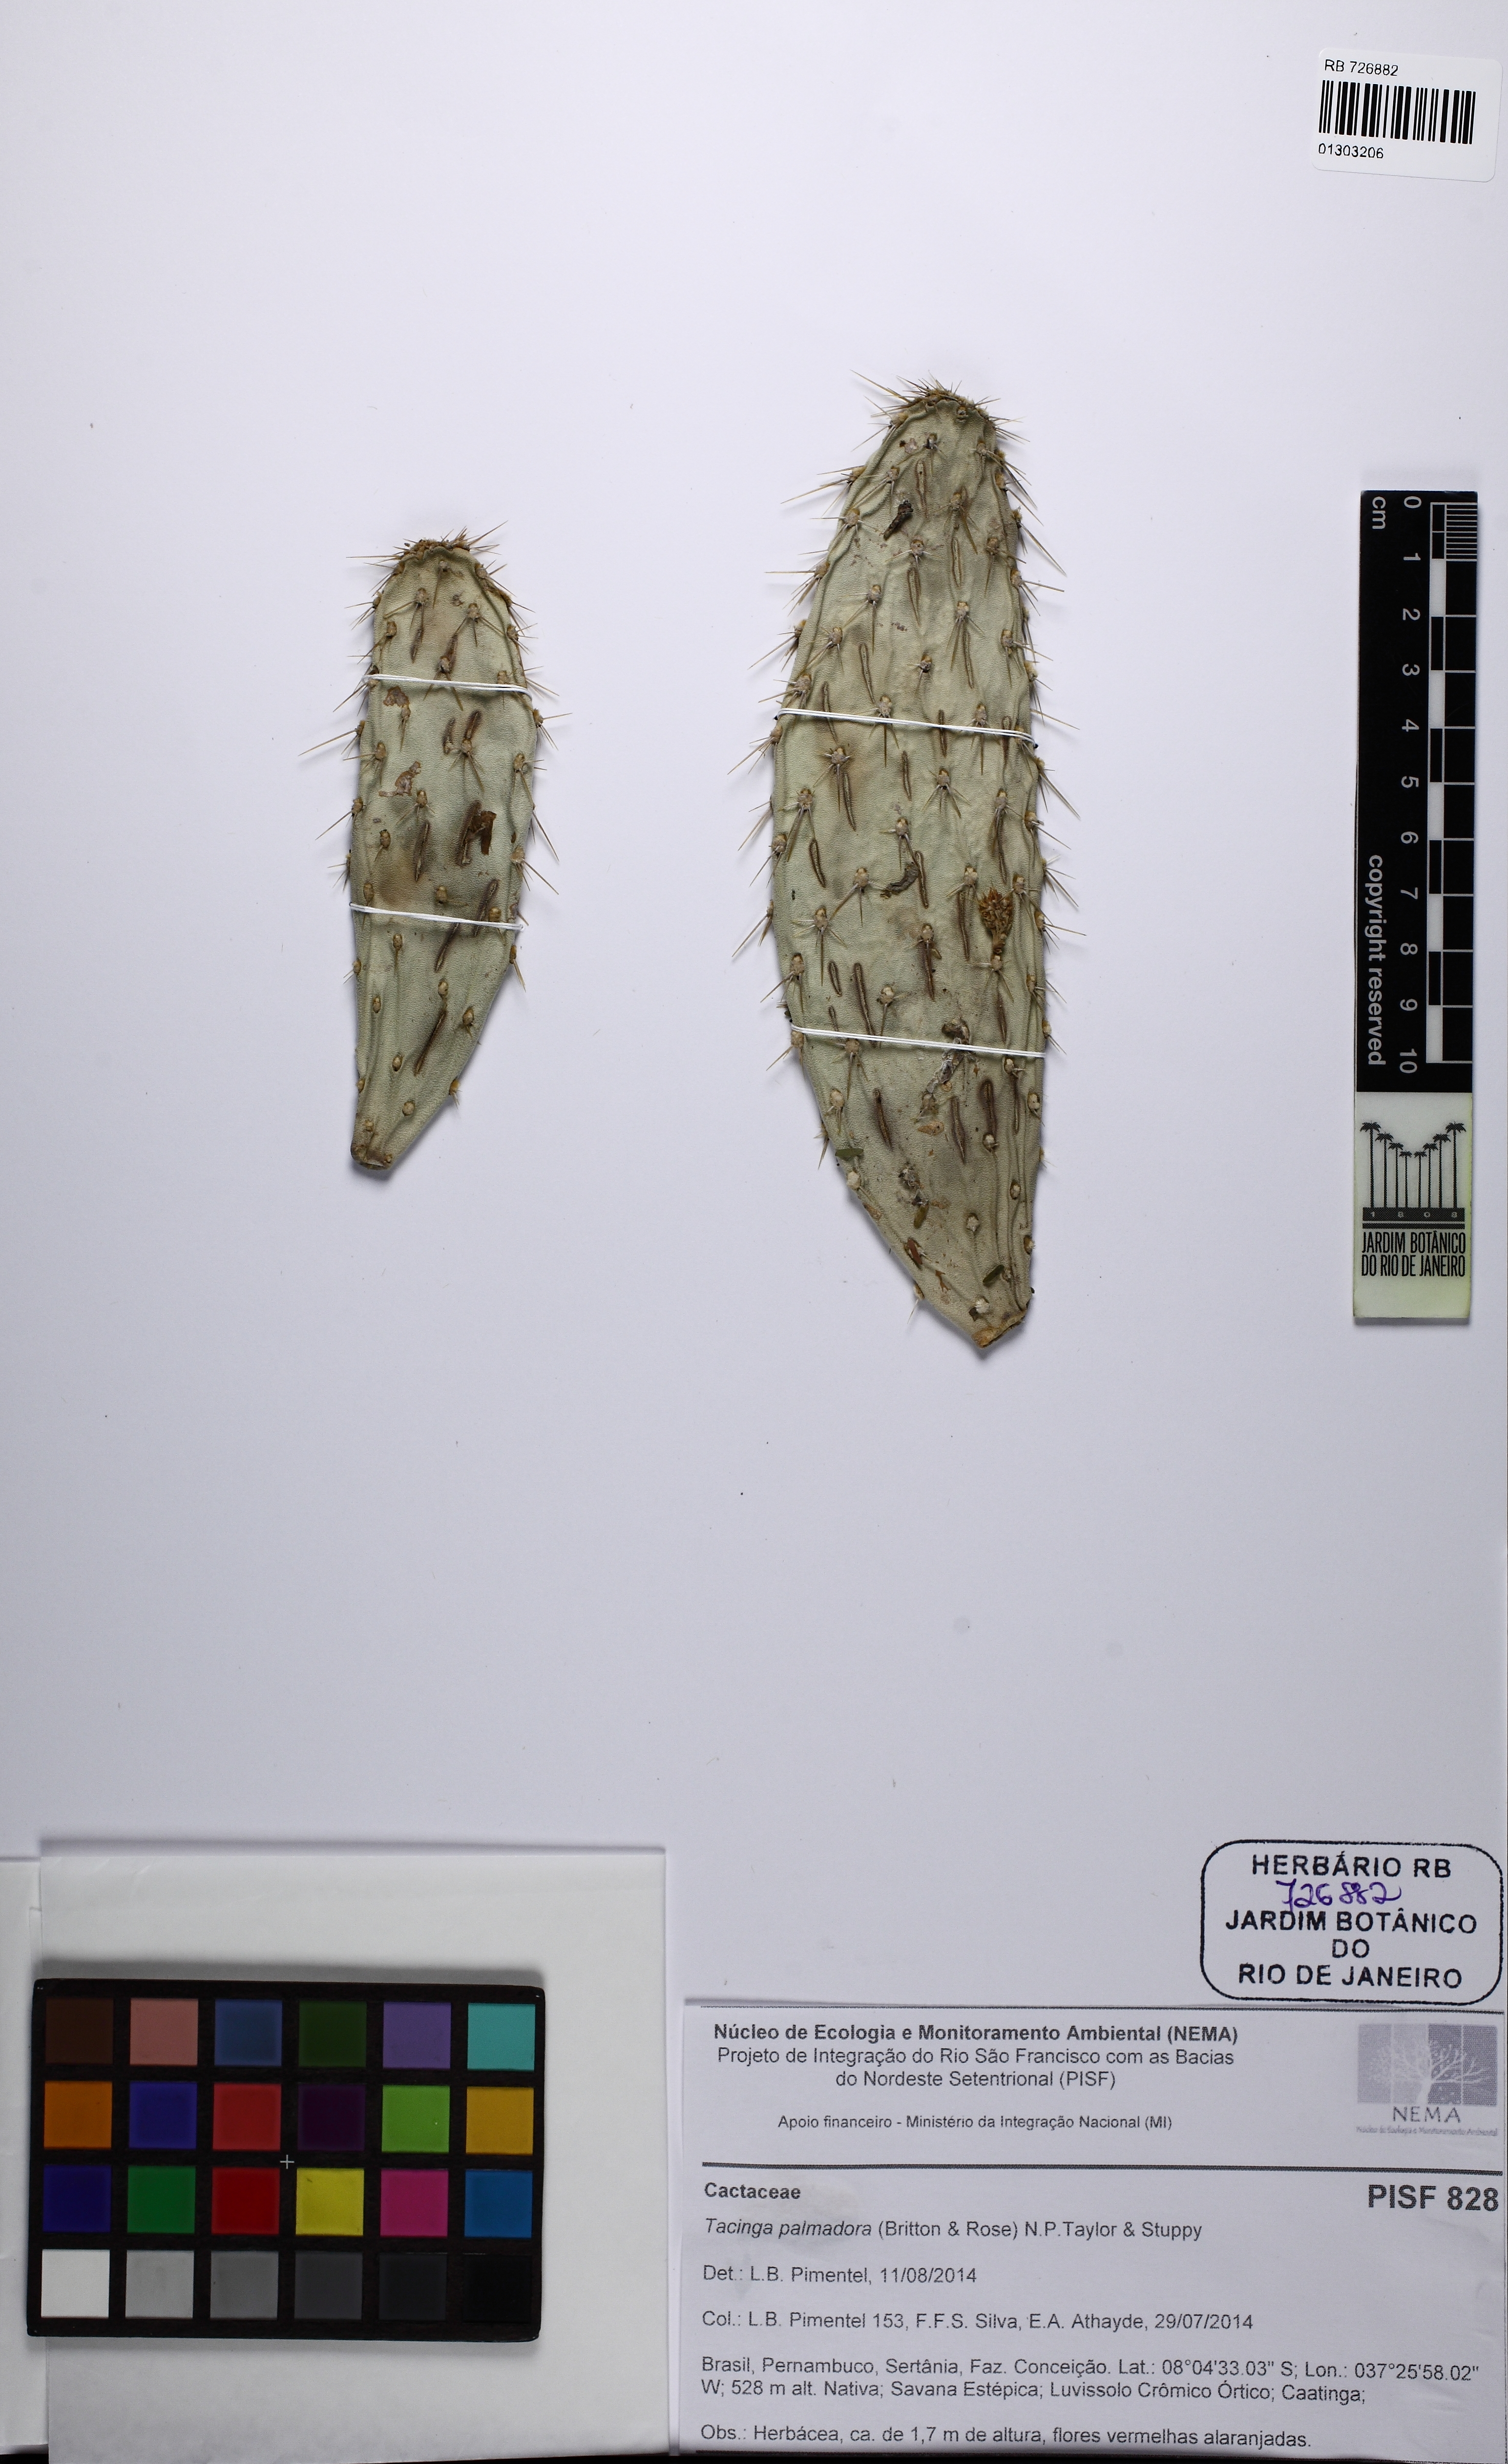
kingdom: Plantae
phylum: Tracheophyta
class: Magnoliopsida
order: Caryophyllales
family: Cactaceae
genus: Tacinga
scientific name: Tacinga palmadora
